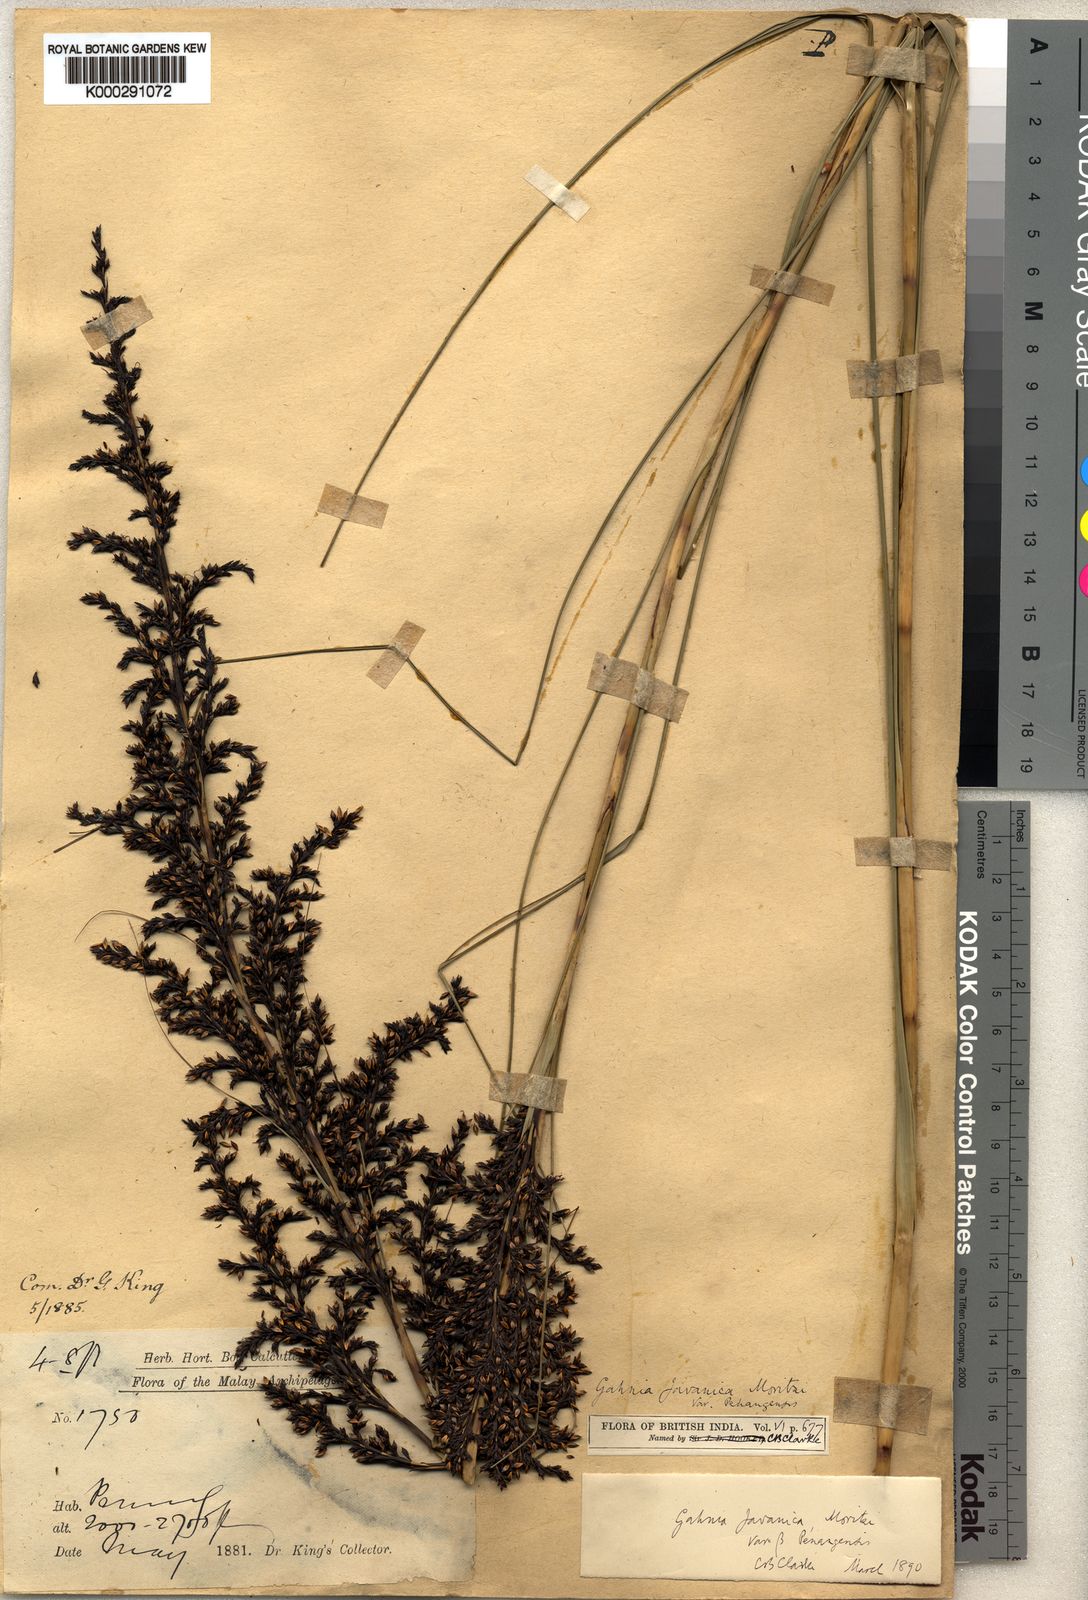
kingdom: Plantae
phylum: Tracheophyta
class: Liliopsida
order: Poales
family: Cyperaceae
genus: Gahnia
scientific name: Gahnia baniensis
